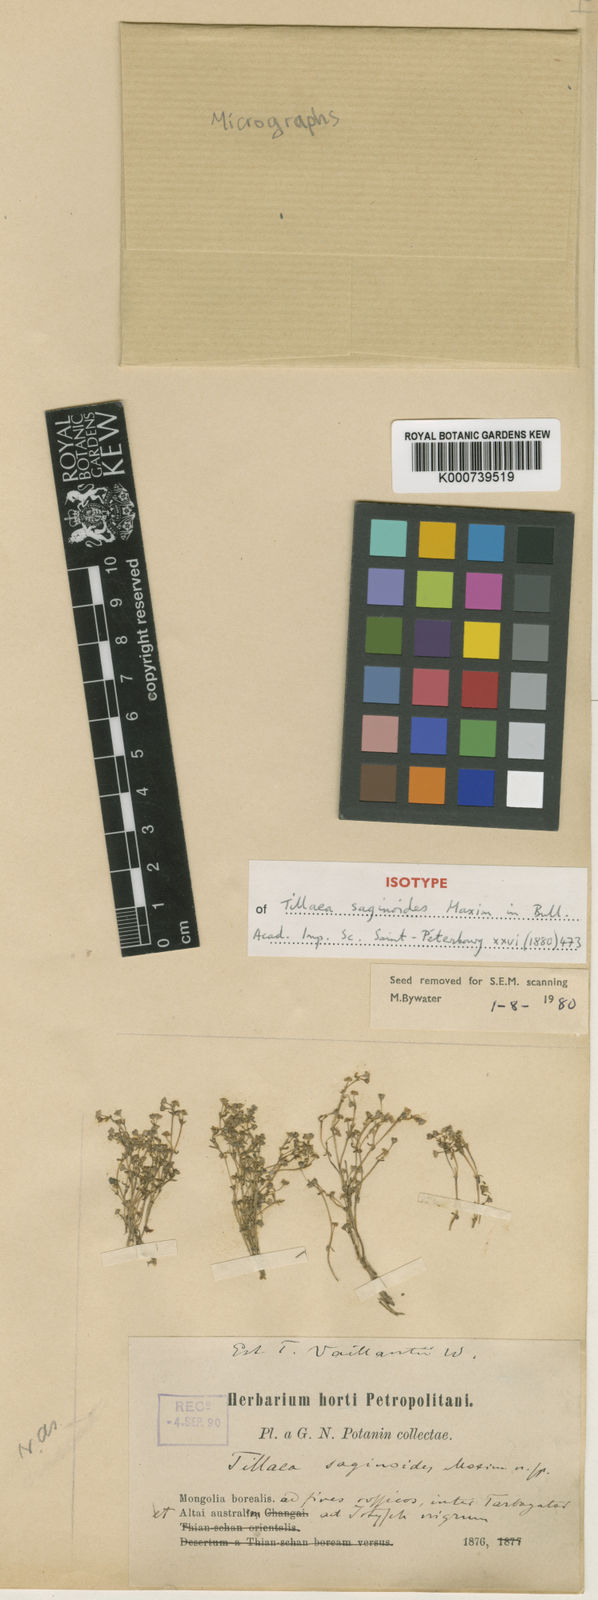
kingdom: Plantae
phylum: Tracheophyta
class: Magnoliopsida
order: Saxifragales
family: Crassulaceae
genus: Crassula
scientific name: Crassula saginoides
